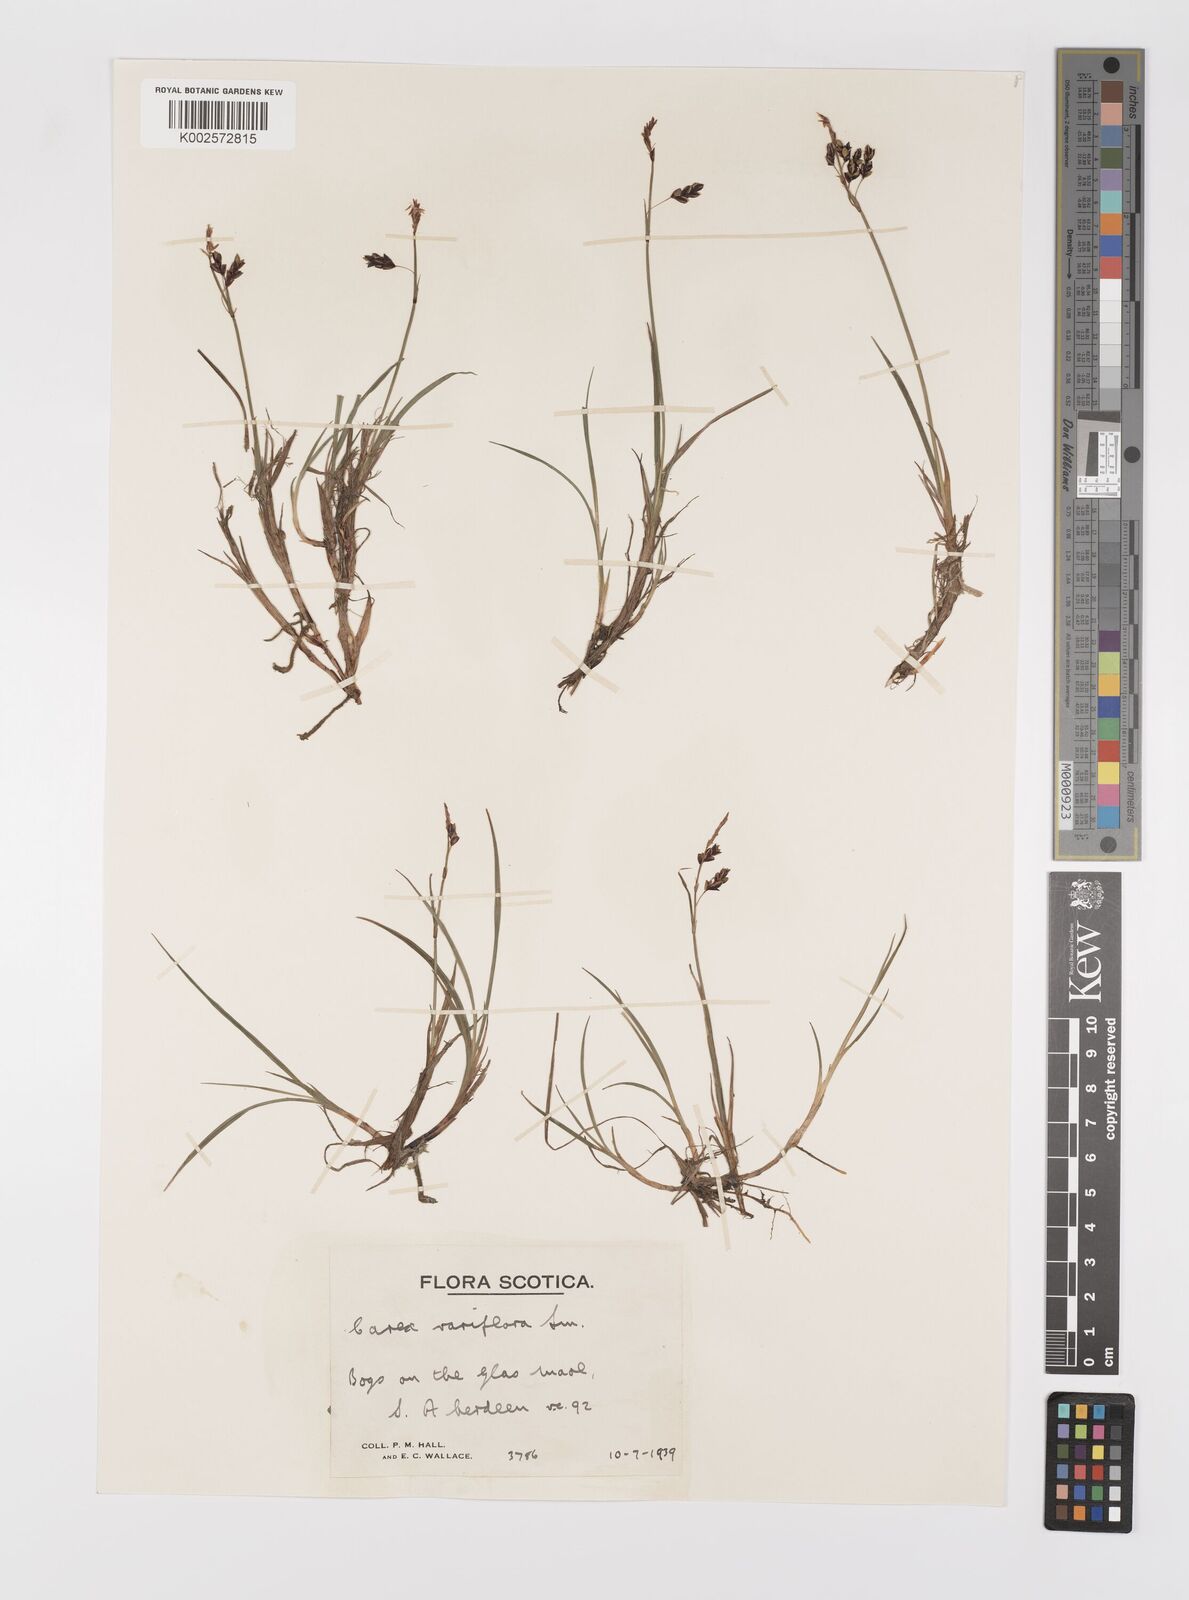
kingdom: Plantae
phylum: Tracheophyta
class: Liliopsida
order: Poales
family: Cyperaceae
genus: Carex
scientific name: Carex rariflora
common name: Loose-flowered alpine sedge
